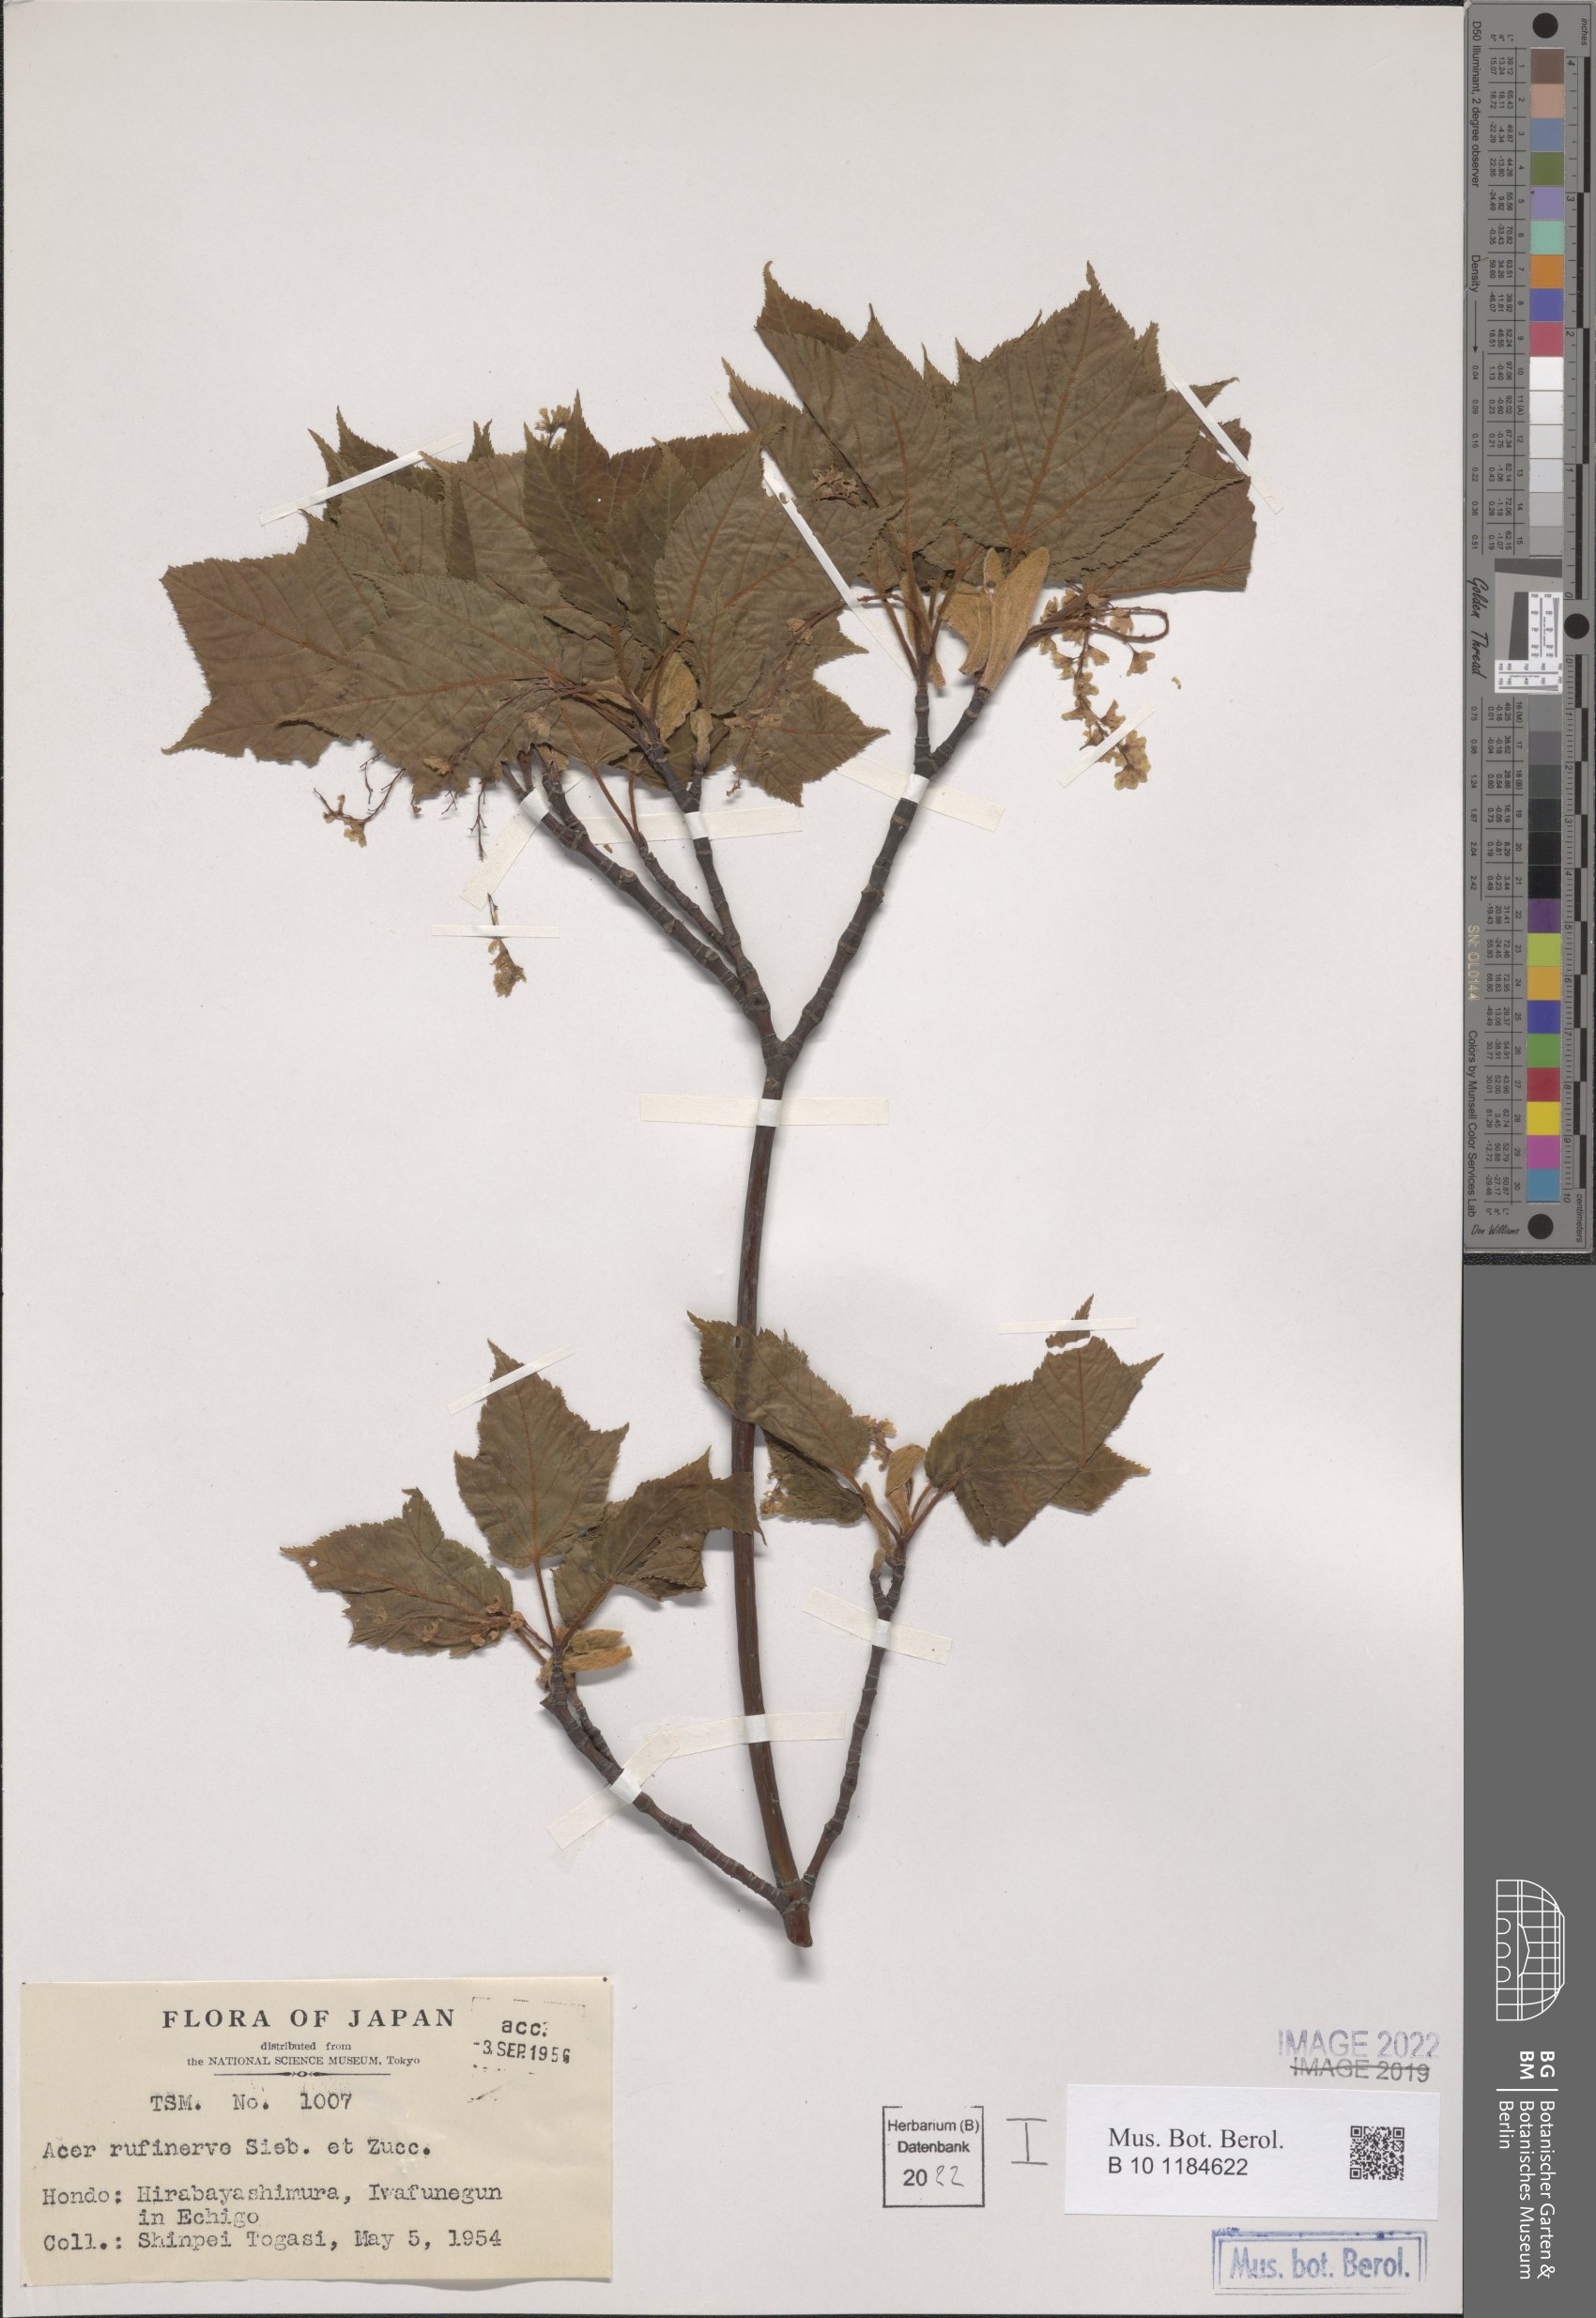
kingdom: Plantae
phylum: Tracheophyta
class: Magnoliopsida
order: Sapindales
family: Sapindaceae
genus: Acer
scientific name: Acer rufinerve
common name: Red veined maple
